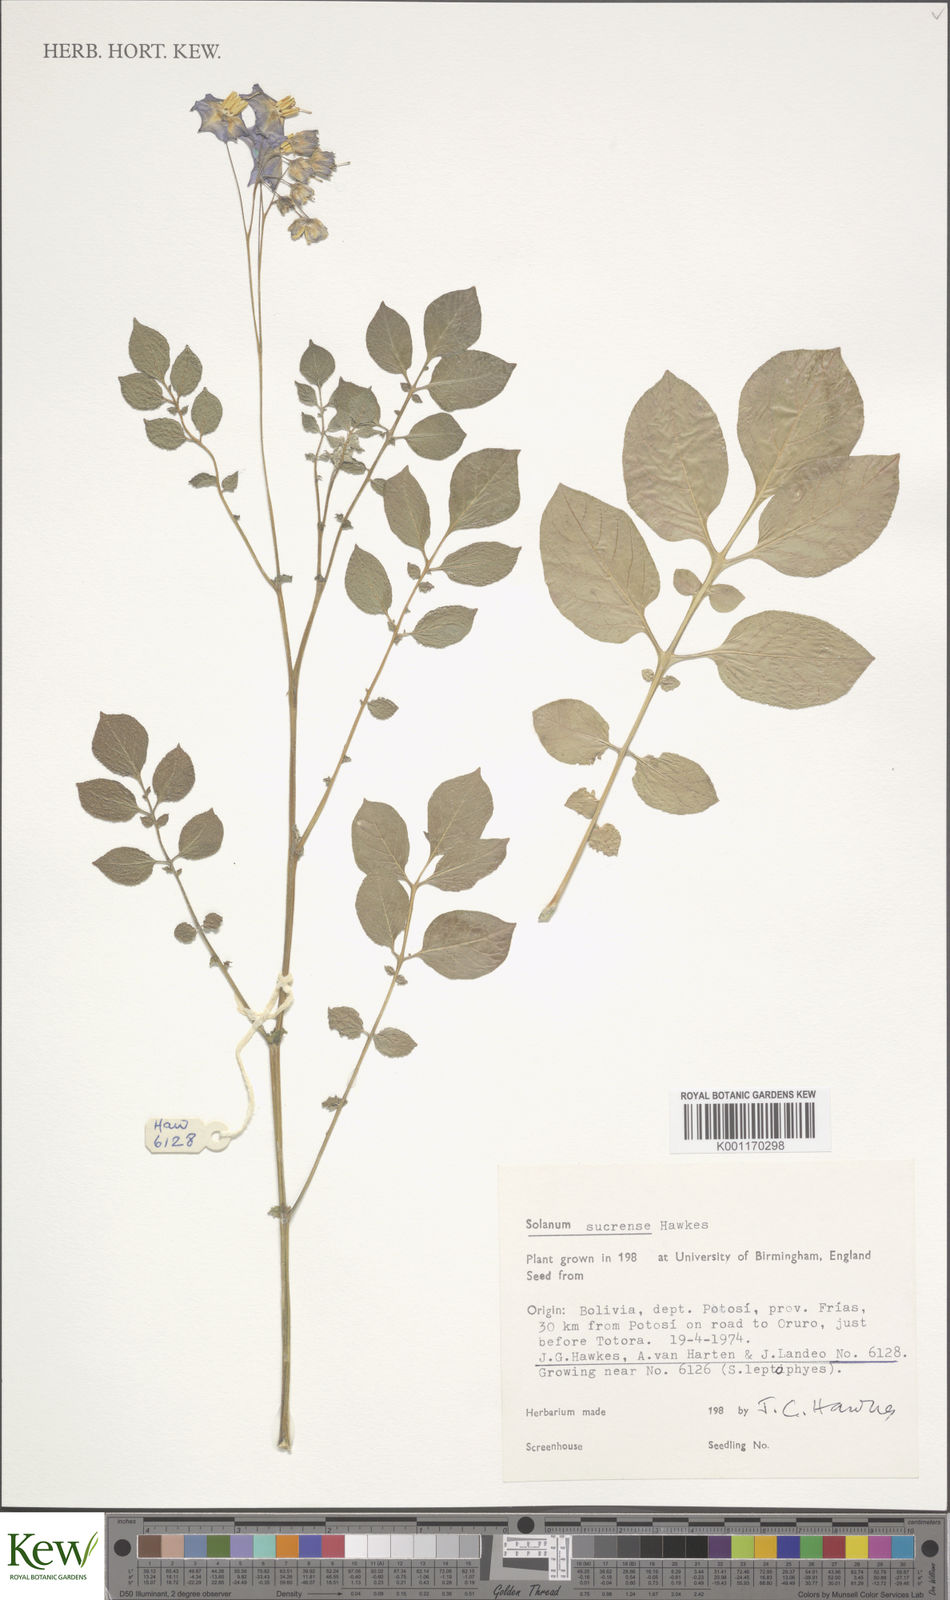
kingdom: Plantae
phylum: Tracheophyta
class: Magnoliopsida
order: Solanales
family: Solanaceae
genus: Solanum
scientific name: Solanum brevicaule
